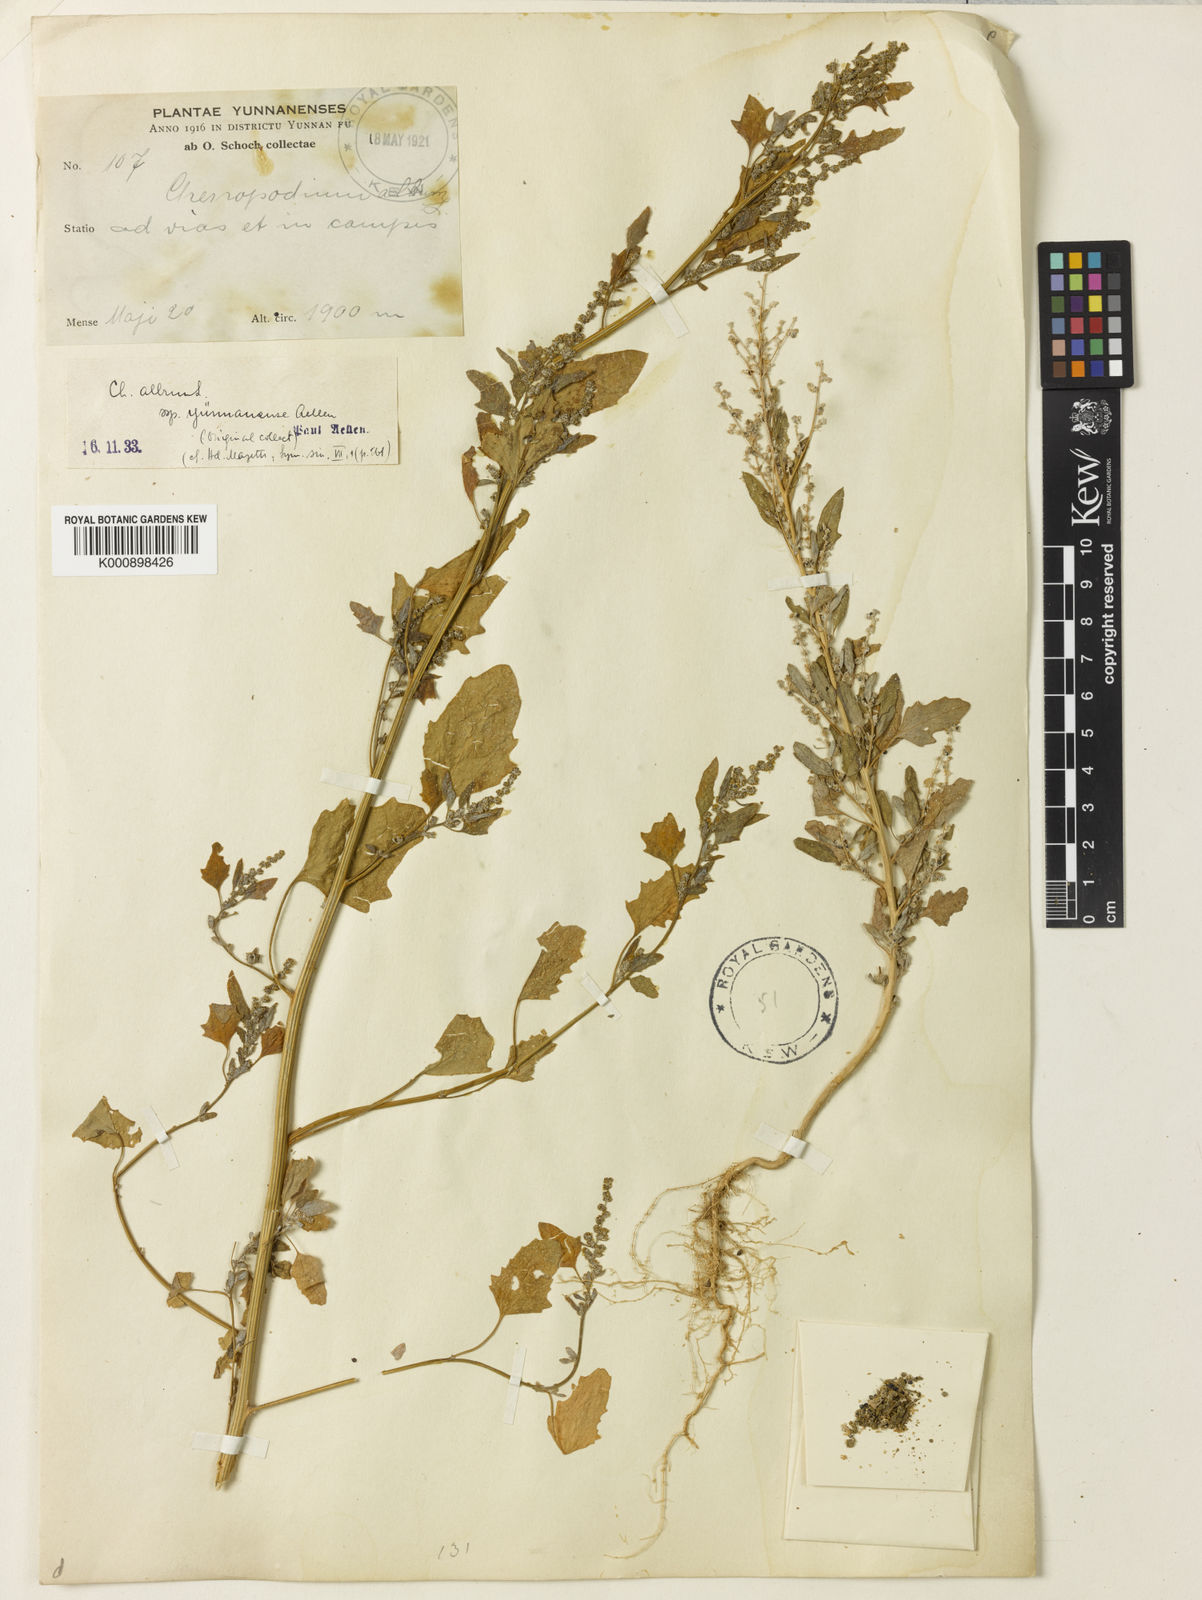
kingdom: Plantae
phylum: Tracheophyta
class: Magnoliopsida
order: Caryophyllales
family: Amaranthaceae
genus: Chenopodium
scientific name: Chenopodium album
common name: Fat-hen
